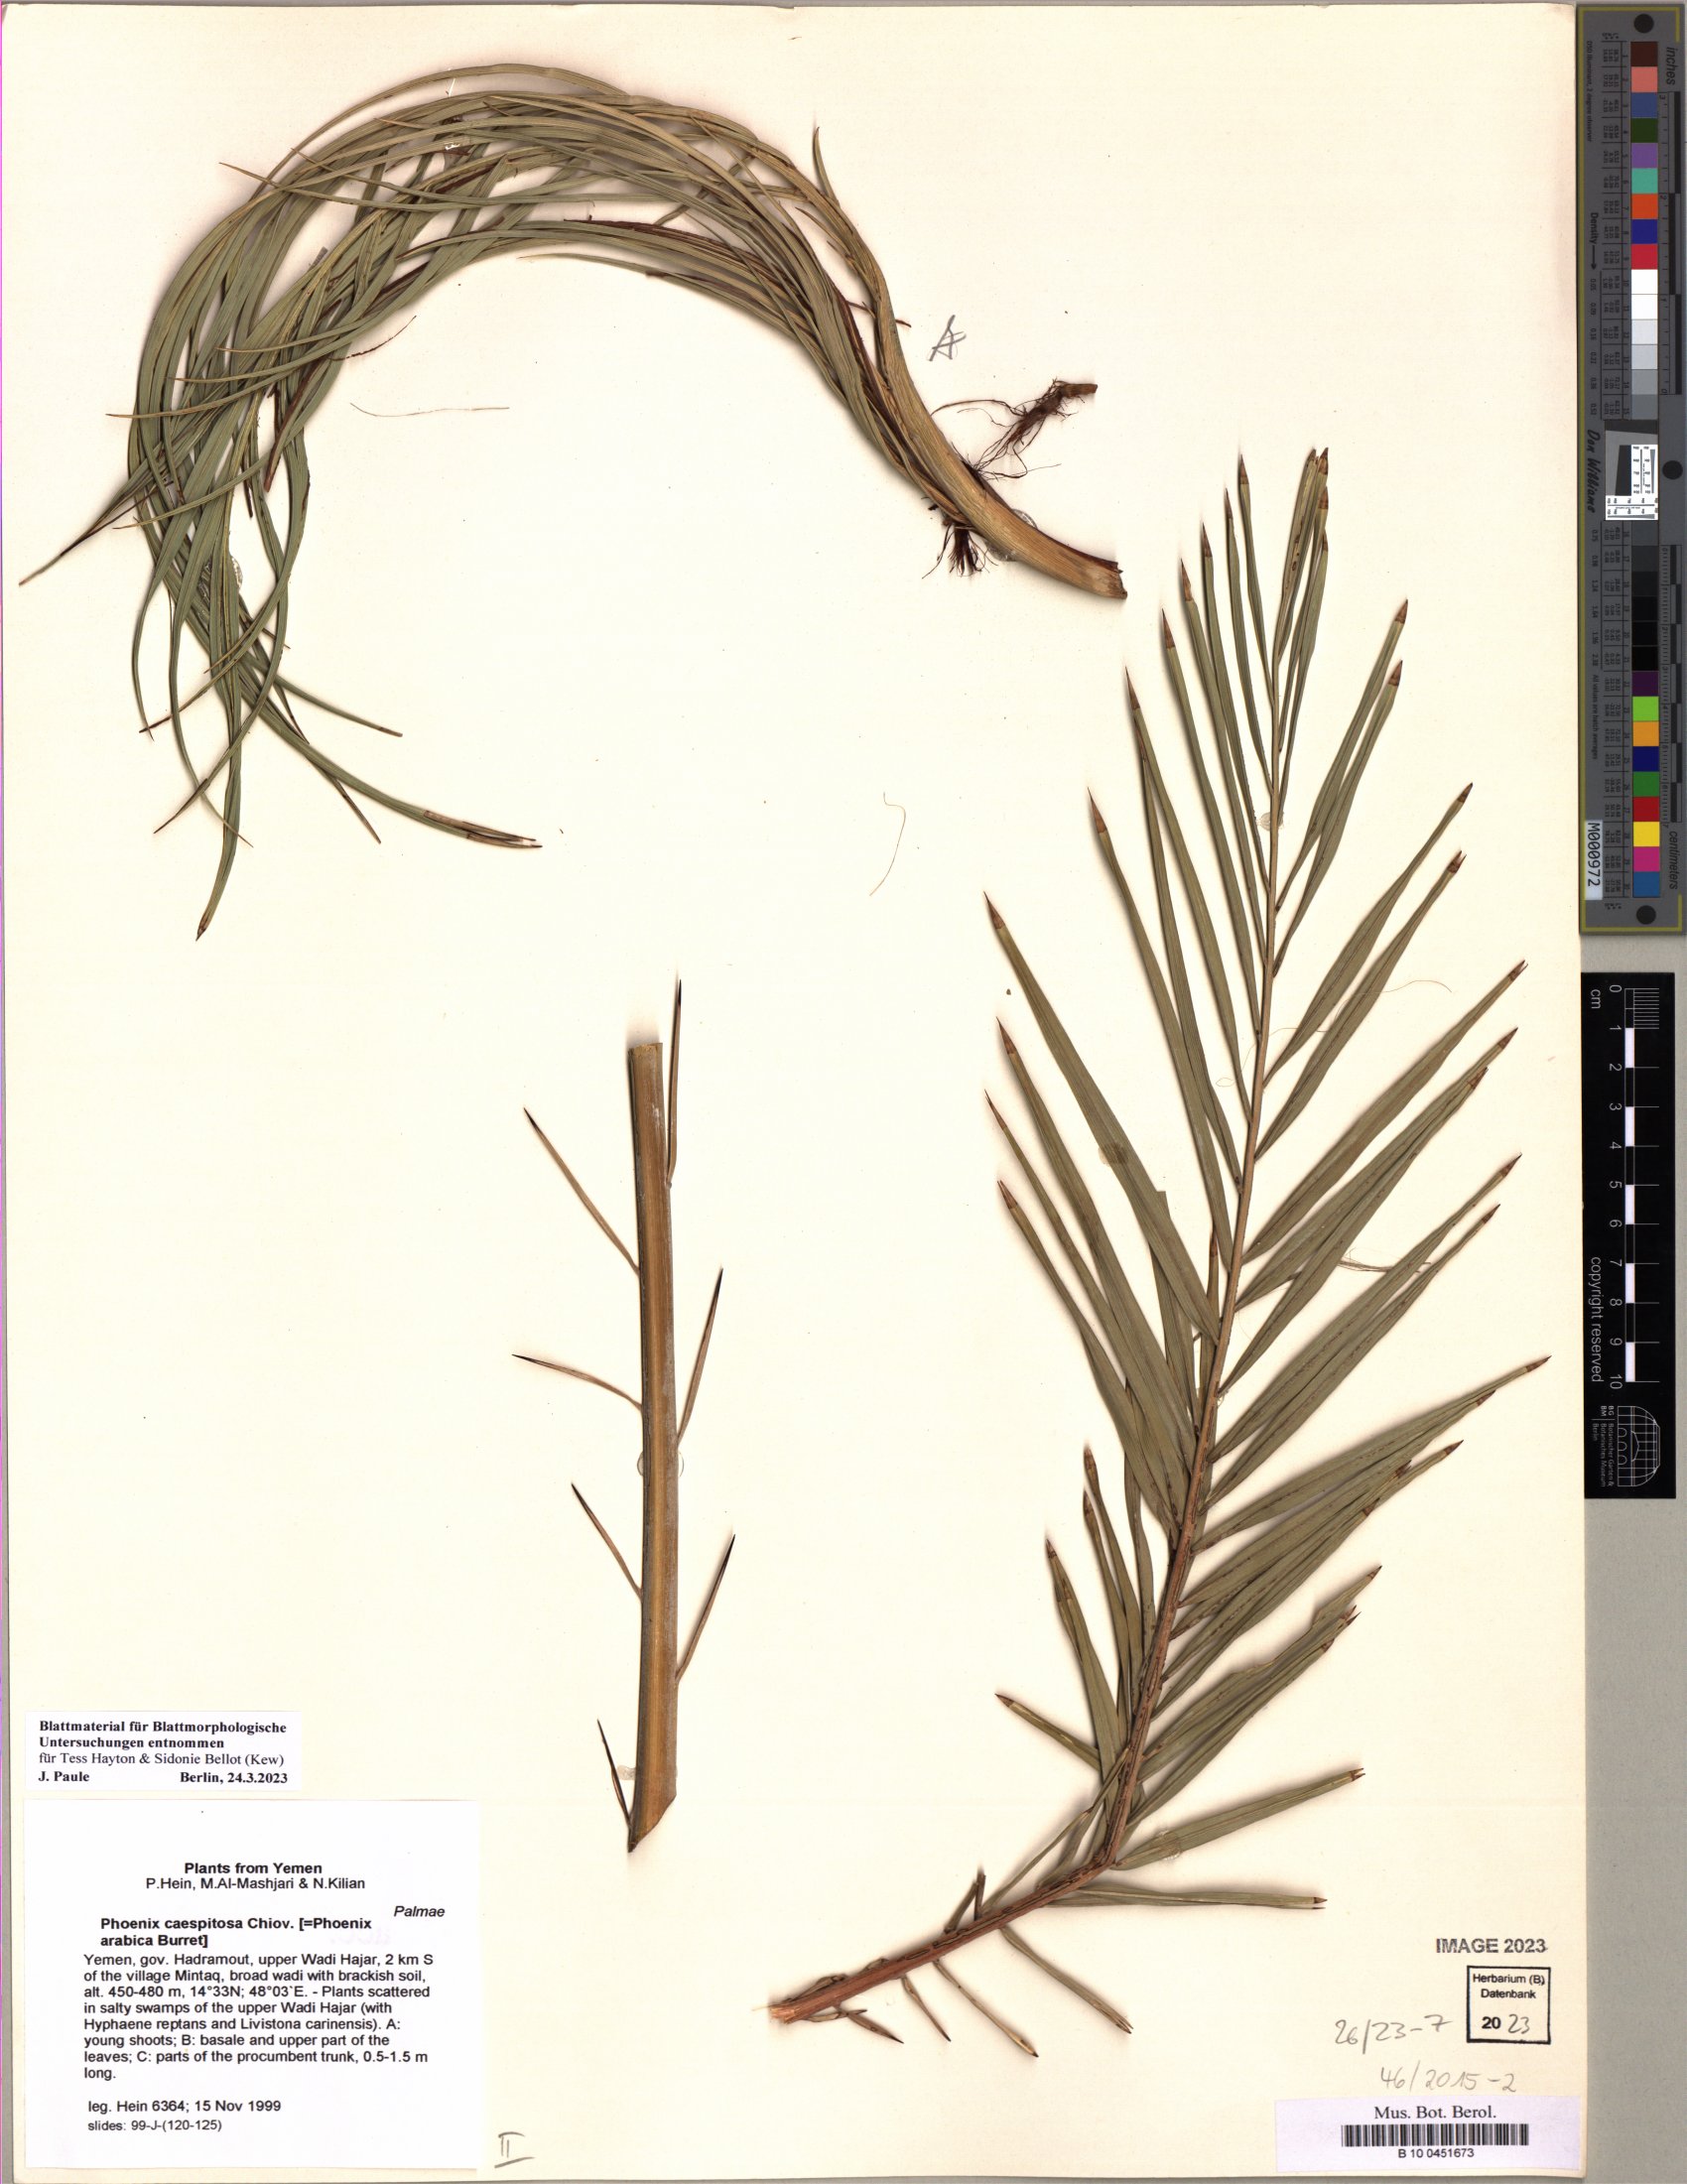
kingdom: Plantae
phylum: Tracheophyta
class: Liliopsida
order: Arecales
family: Arecaceae
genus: Phoenix
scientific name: Phoenix caespitosa
